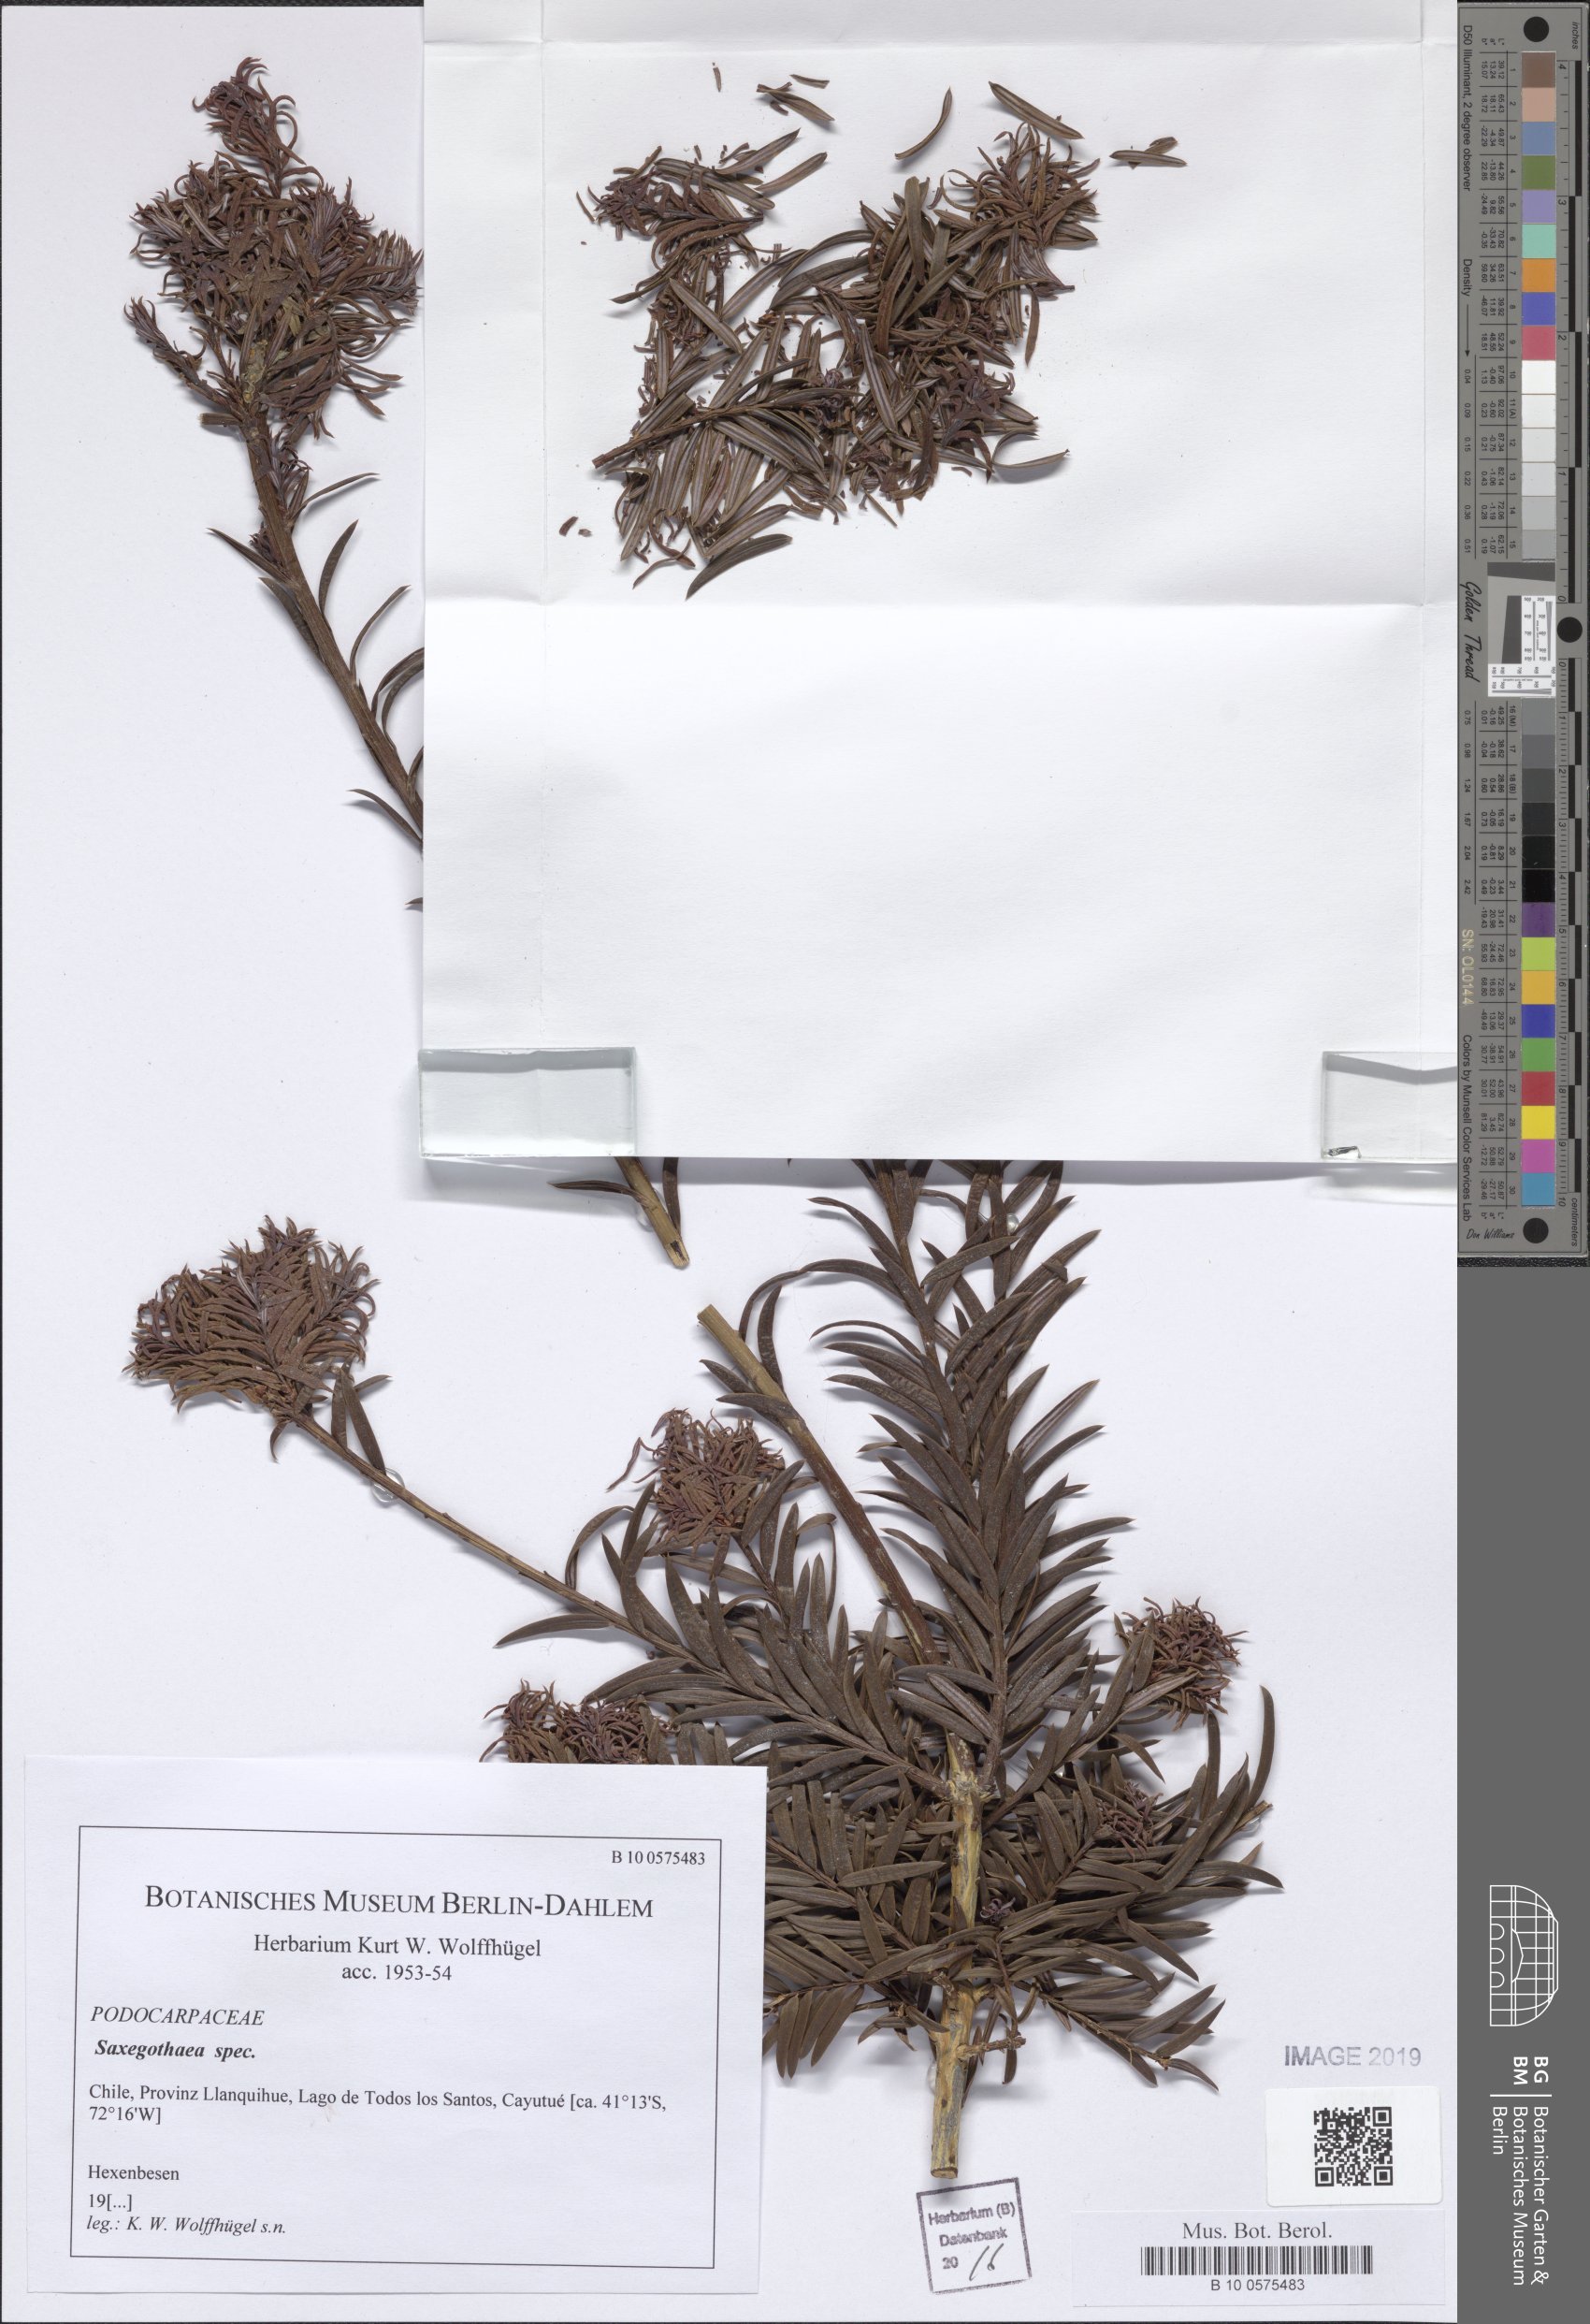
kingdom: Plantae
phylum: Tracheophyta
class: Pinopsida
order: Pinales
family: Podocarpaceae
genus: Saxegothaea
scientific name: Saxegothaea
